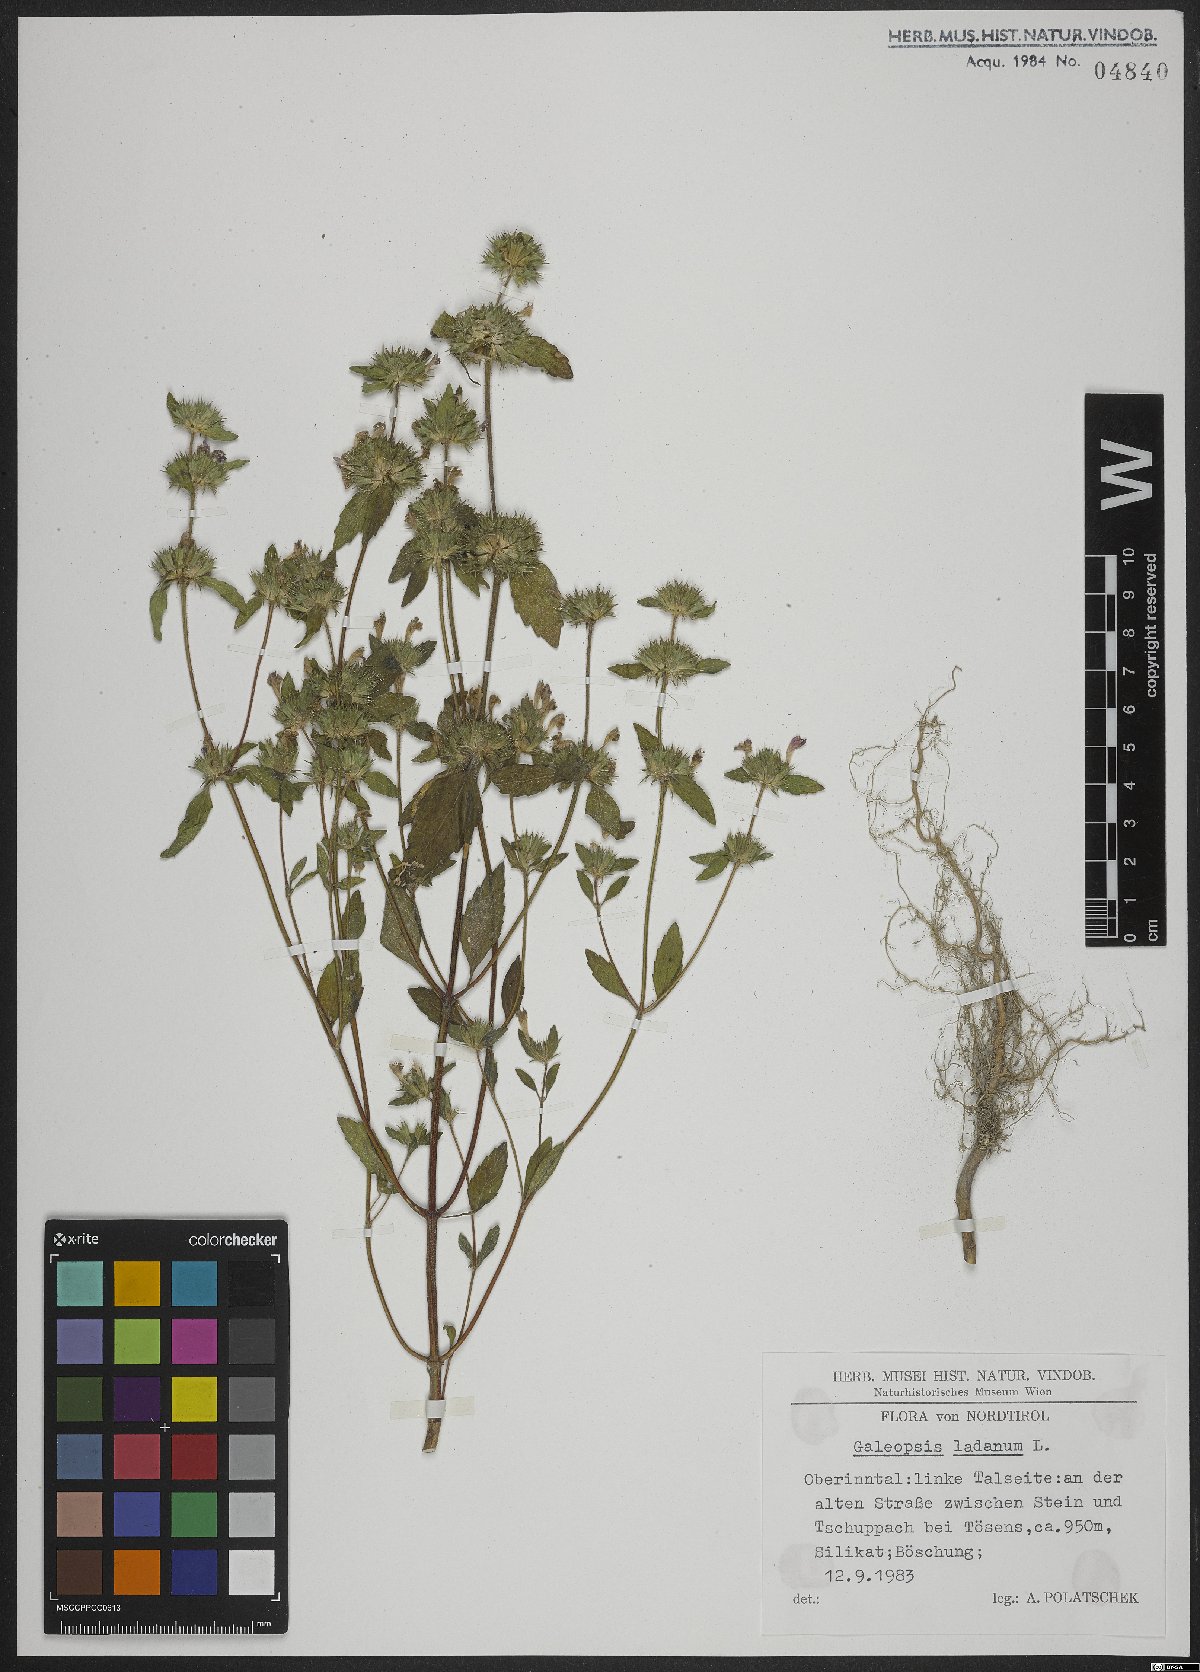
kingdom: Plantae
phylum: Tracheophyta
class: Magnoliopsida
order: Lamiales
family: Lamiaceae
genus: Galeopsis
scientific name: Galeopsis ladanum
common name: Broad-leaved hemp-nettle
